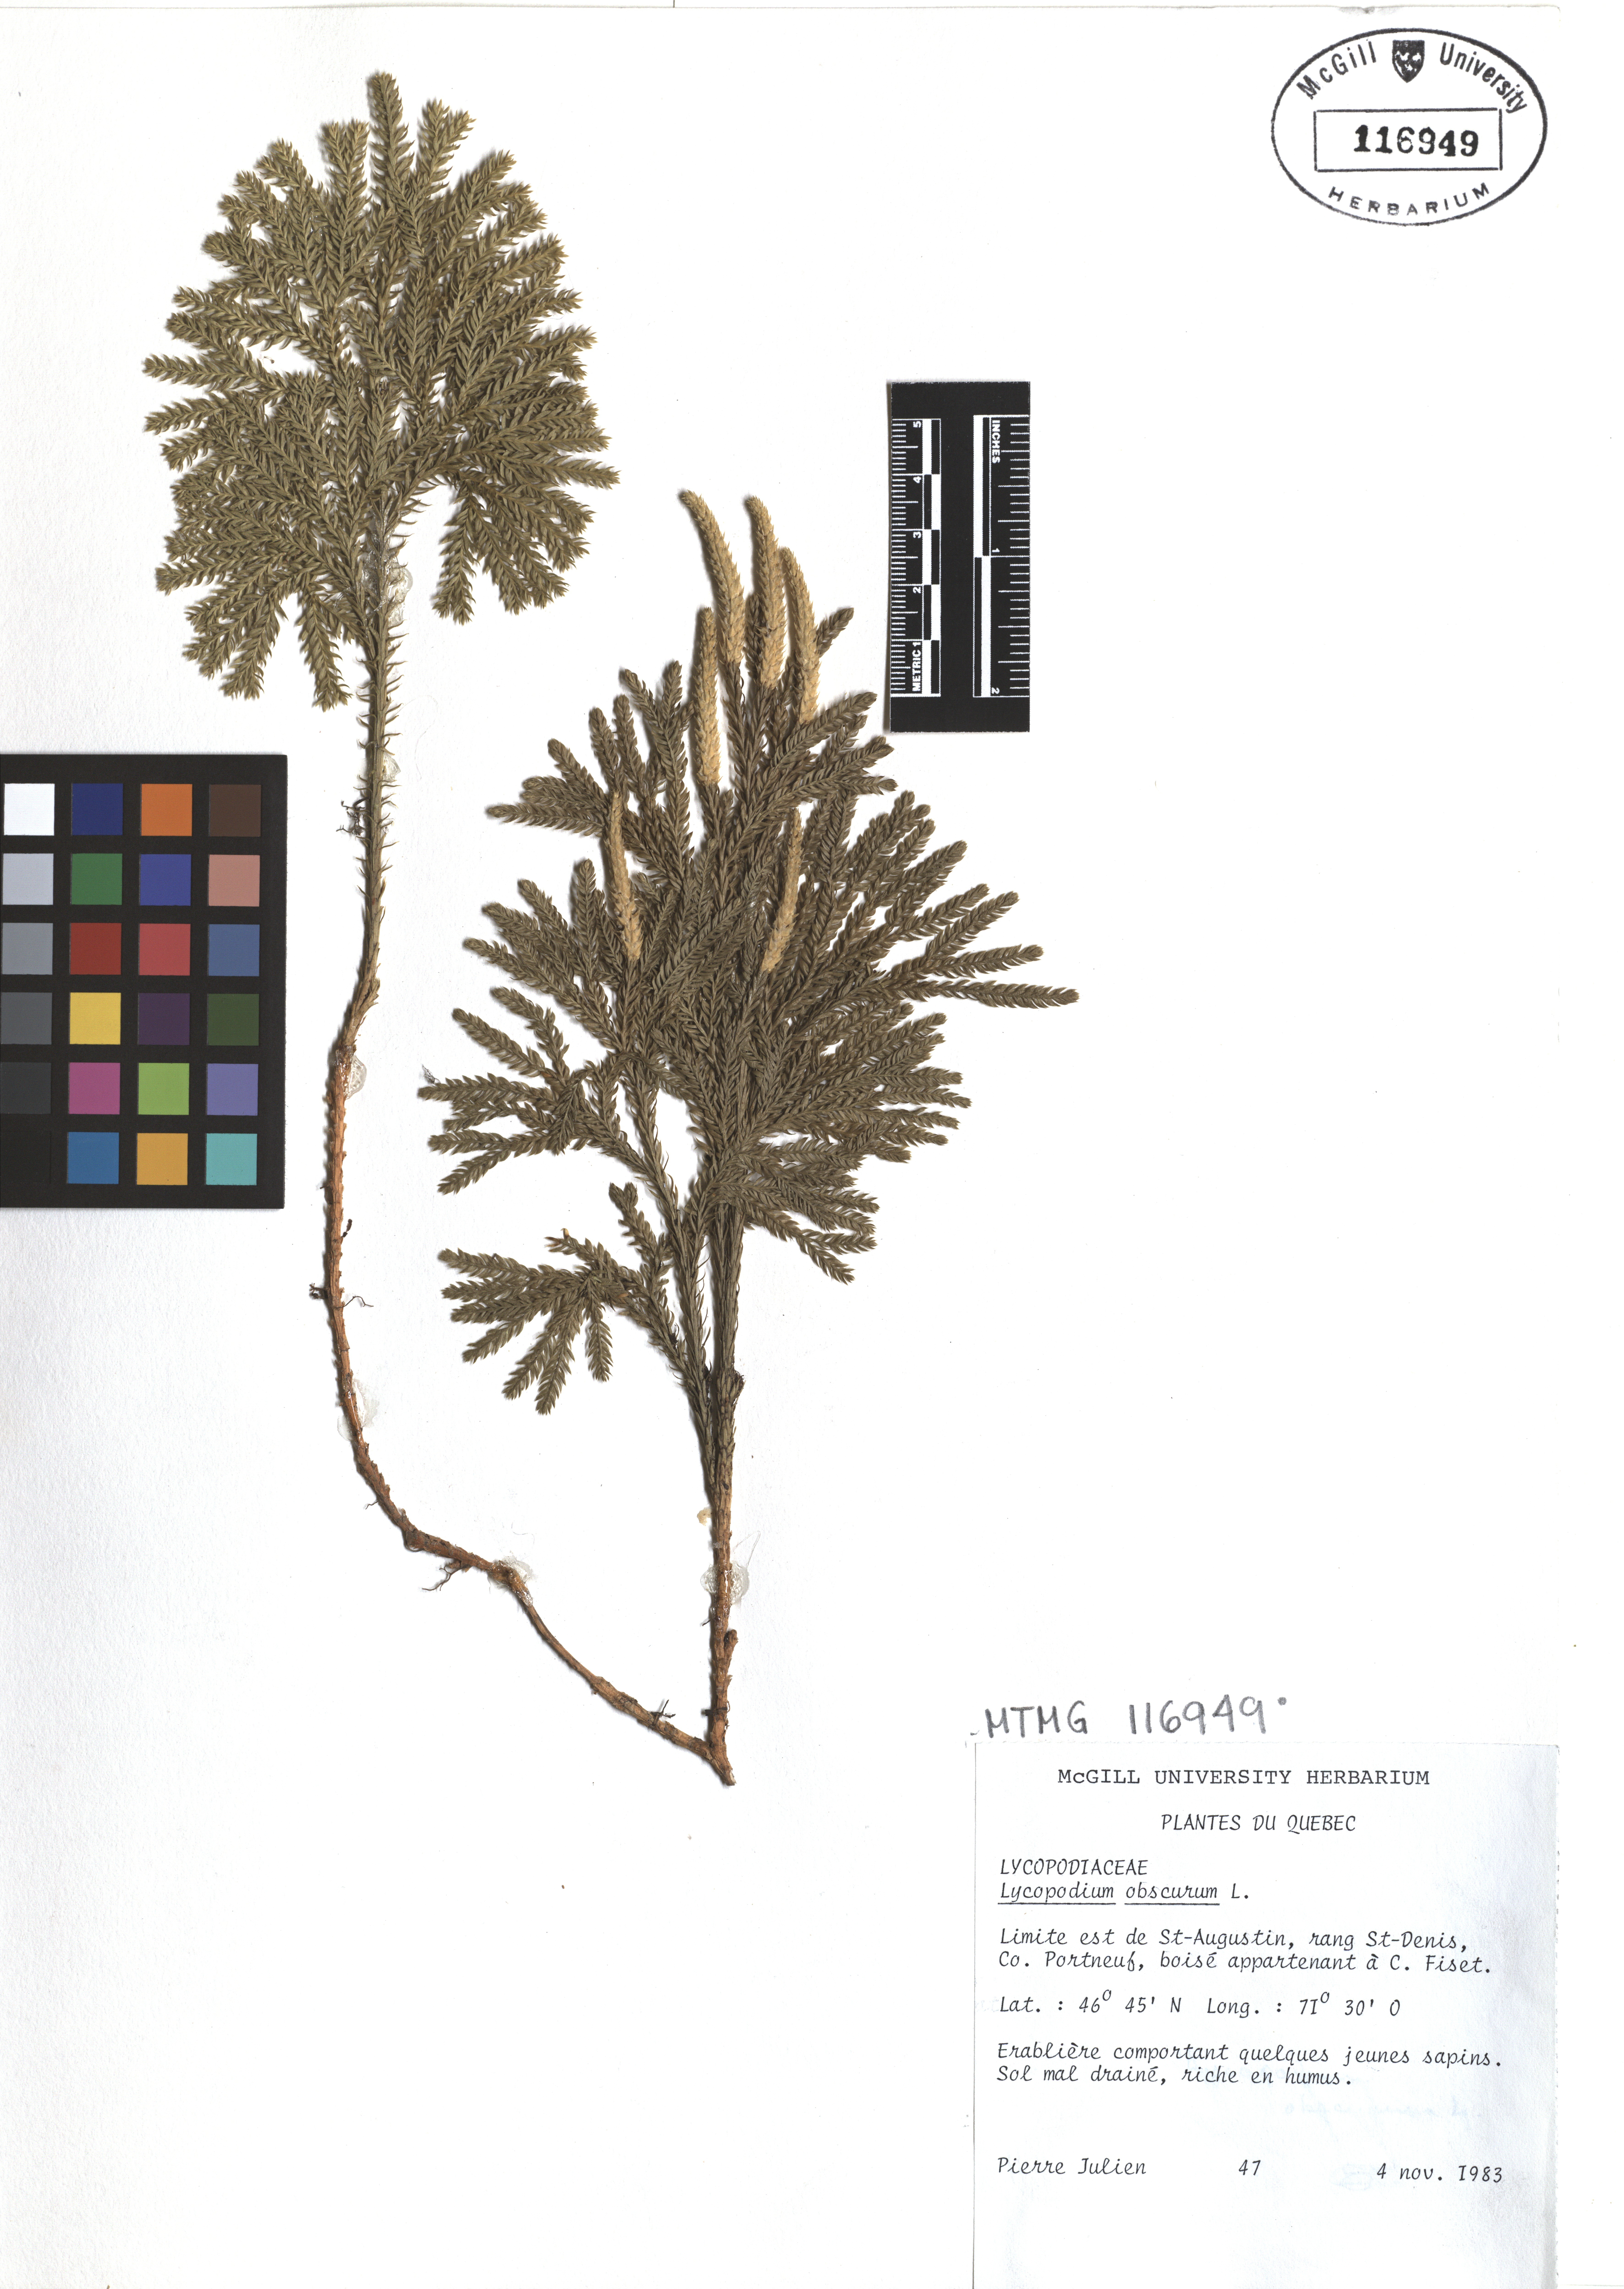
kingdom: Plantae
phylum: Tracheophyta
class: Lycopodiopsida
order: Lycopodiales
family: Lycopodiaceae
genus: Dendrolycopodium
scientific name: Dendrolycopodium obscurum
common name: Common ground-pine
